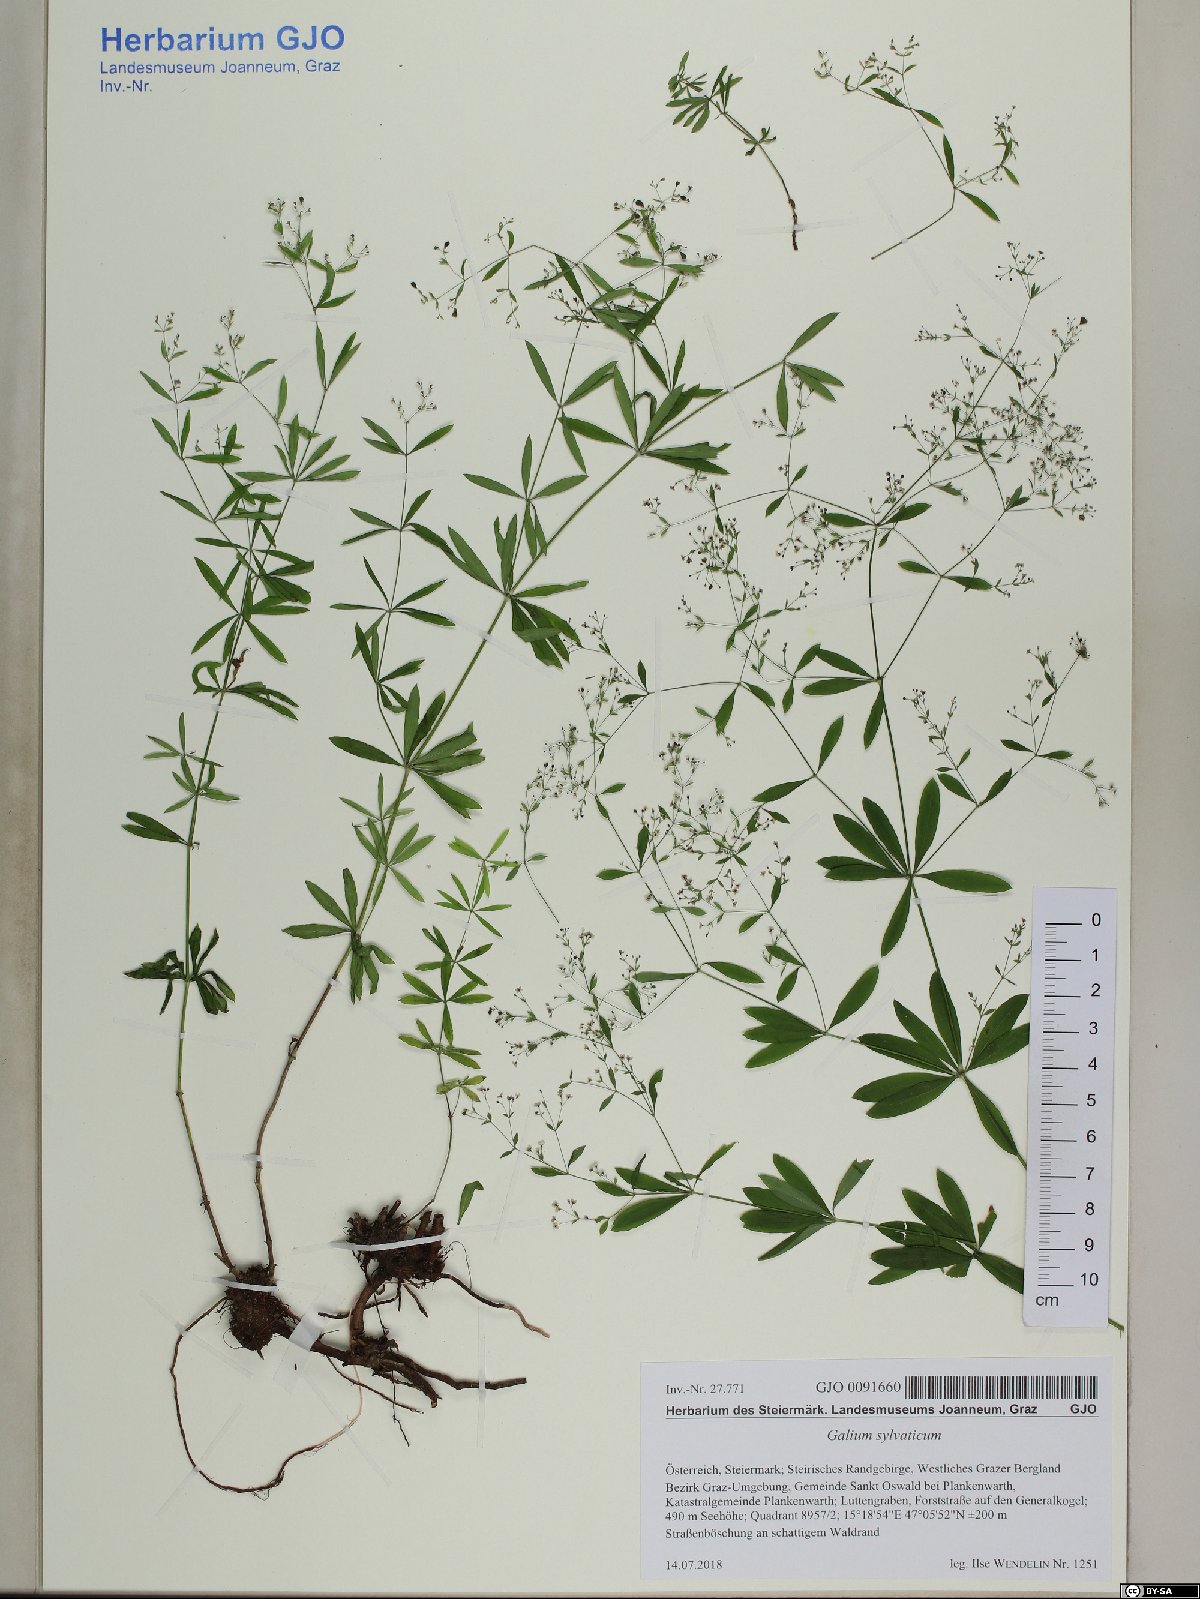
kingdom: Plantae
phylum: Tracheophyta
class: Magnoliopsida
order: Gentianales
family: Rubiaceae
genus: Galium
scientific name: Galium sylvaticum
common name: Wood bedstraw
